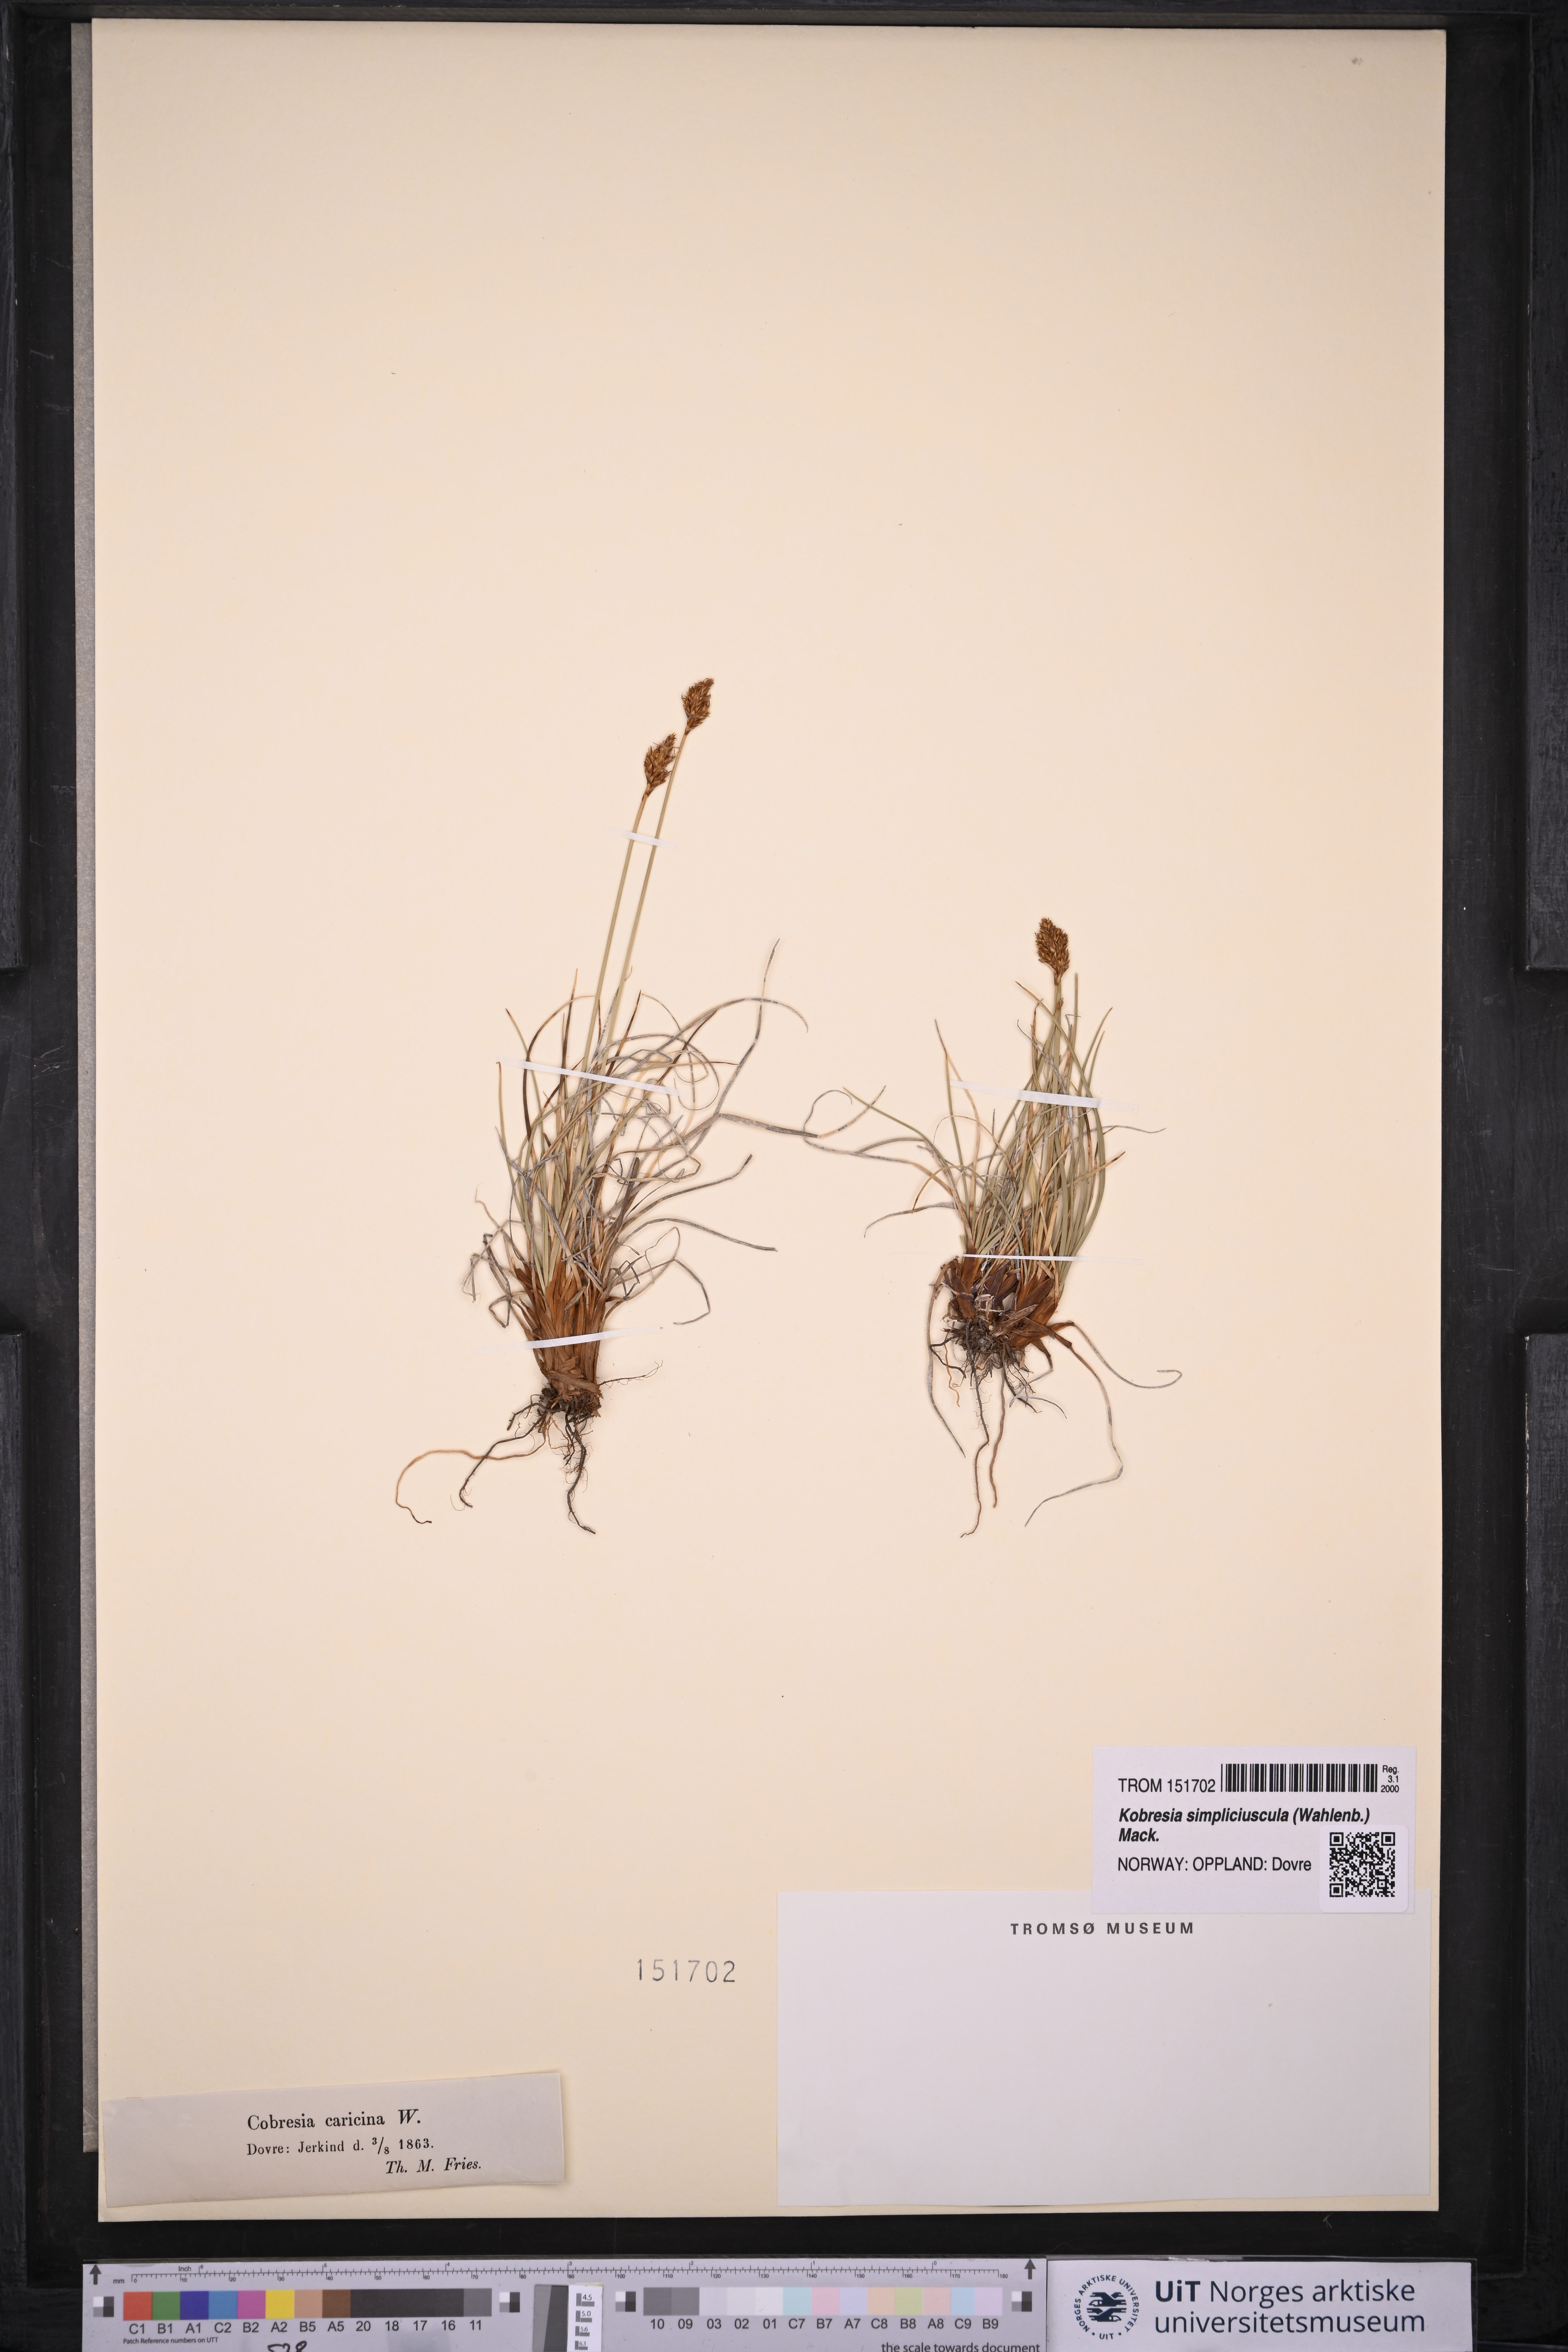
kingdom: Plantae
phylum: Tracheophyta
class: Liliopsida
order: Poales
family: Cyperaceae
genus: Carex
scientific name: Carex simpliciuscula
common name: Simple bog sedge
